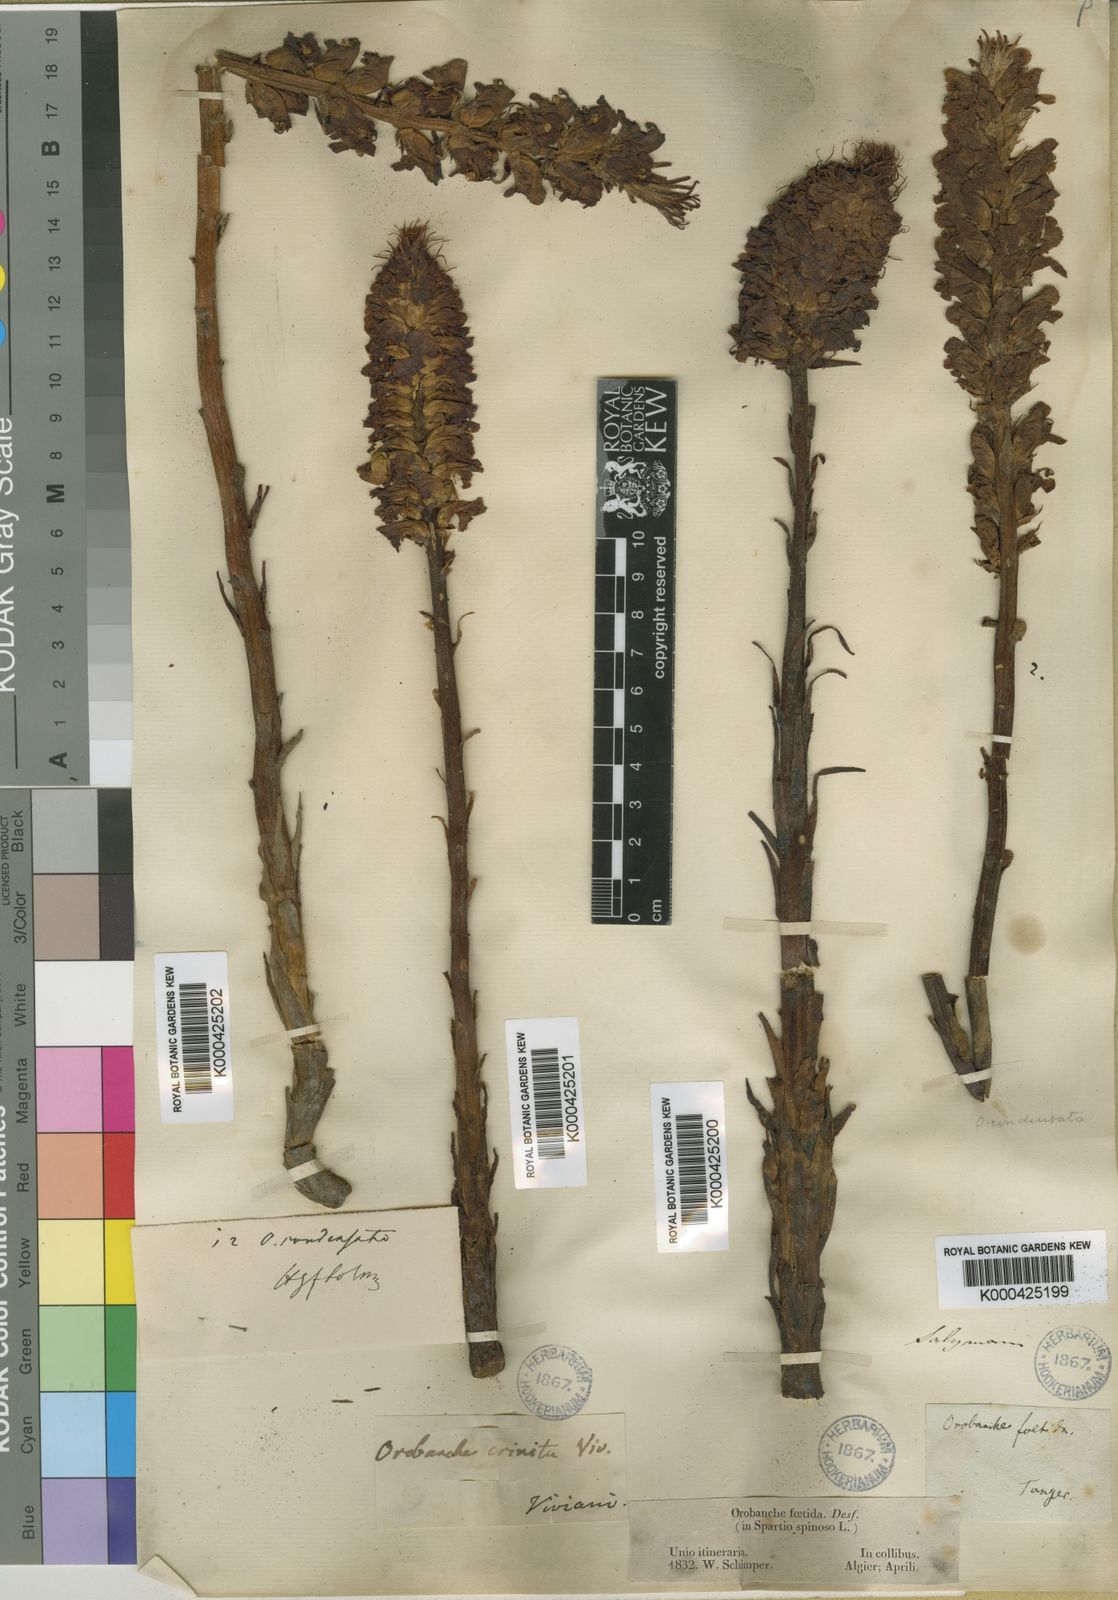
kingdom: Plantae
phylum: Tracheophyta
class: Magnoliopsida
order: Lamiales
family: Orobanchaceae
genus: Orobanche
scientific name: Orobanche sanguinea
